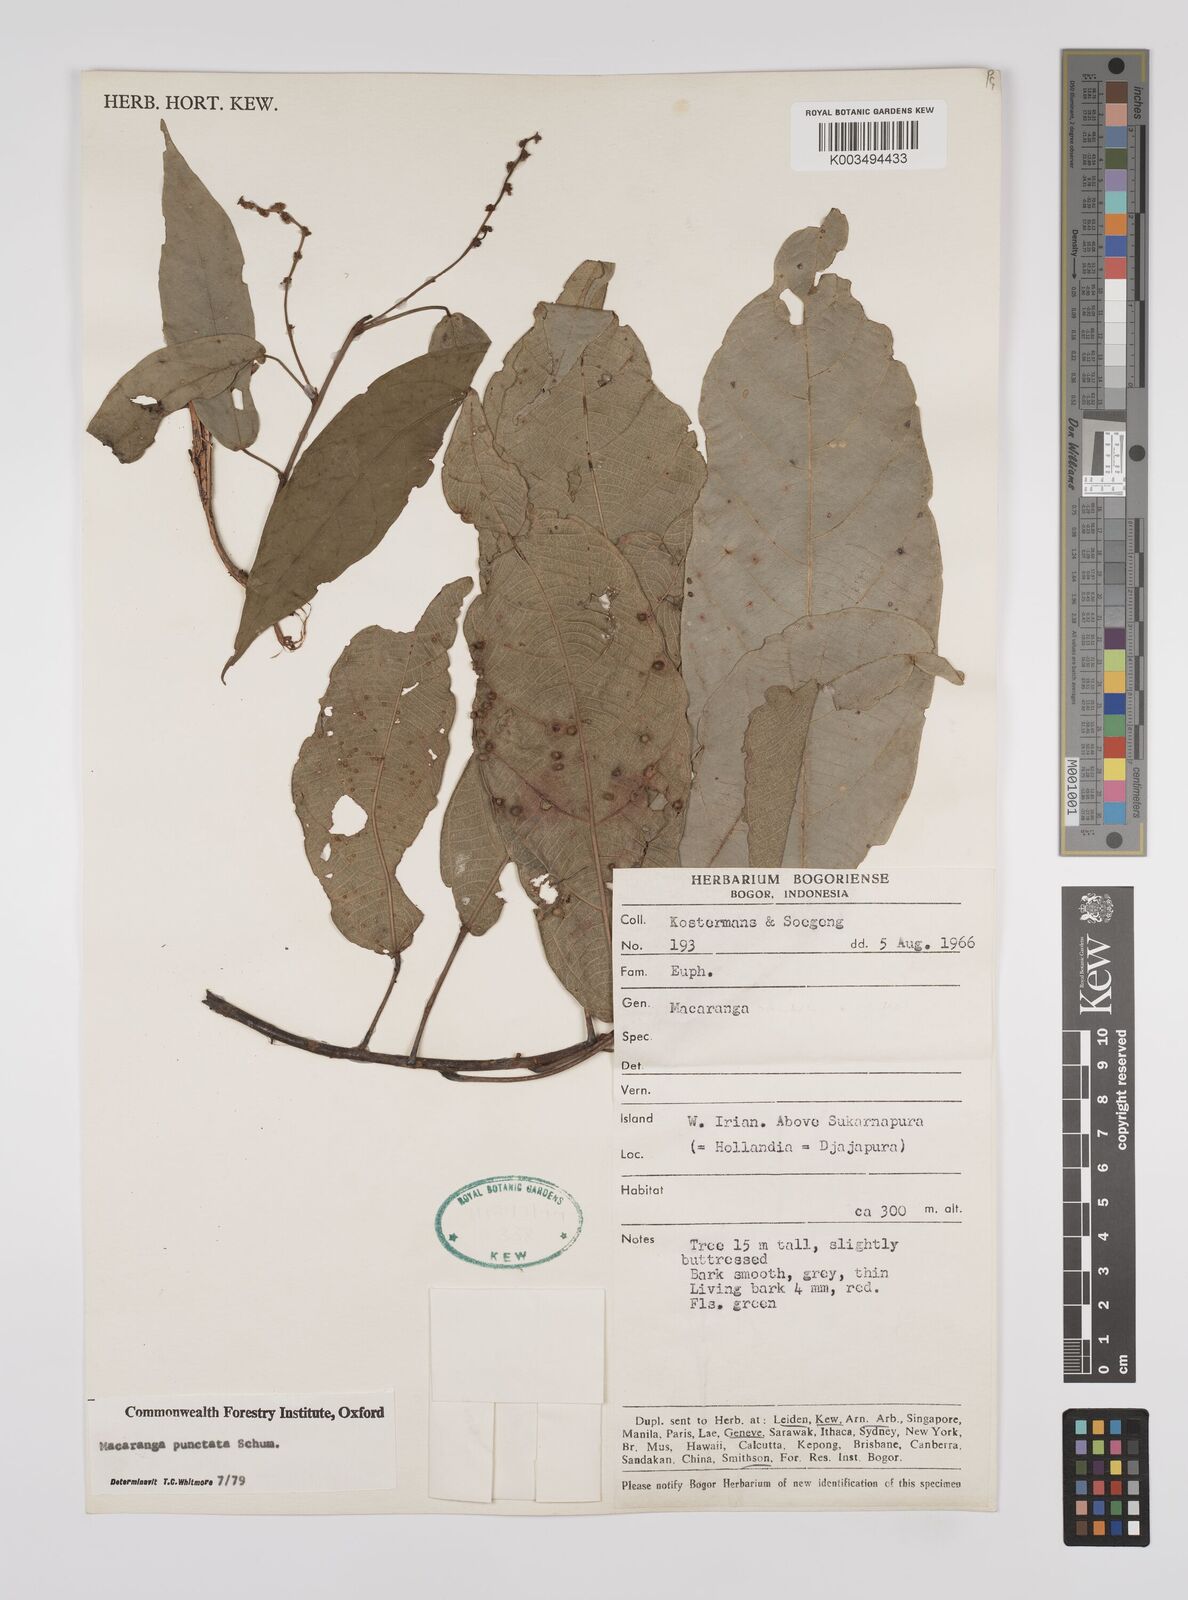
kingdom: Plantae
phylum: Tracheophyta
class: Magnoliopsida
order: Malpighiales
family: Euphorbiaceae
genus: Macaranga
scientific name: Macaranga punctata
